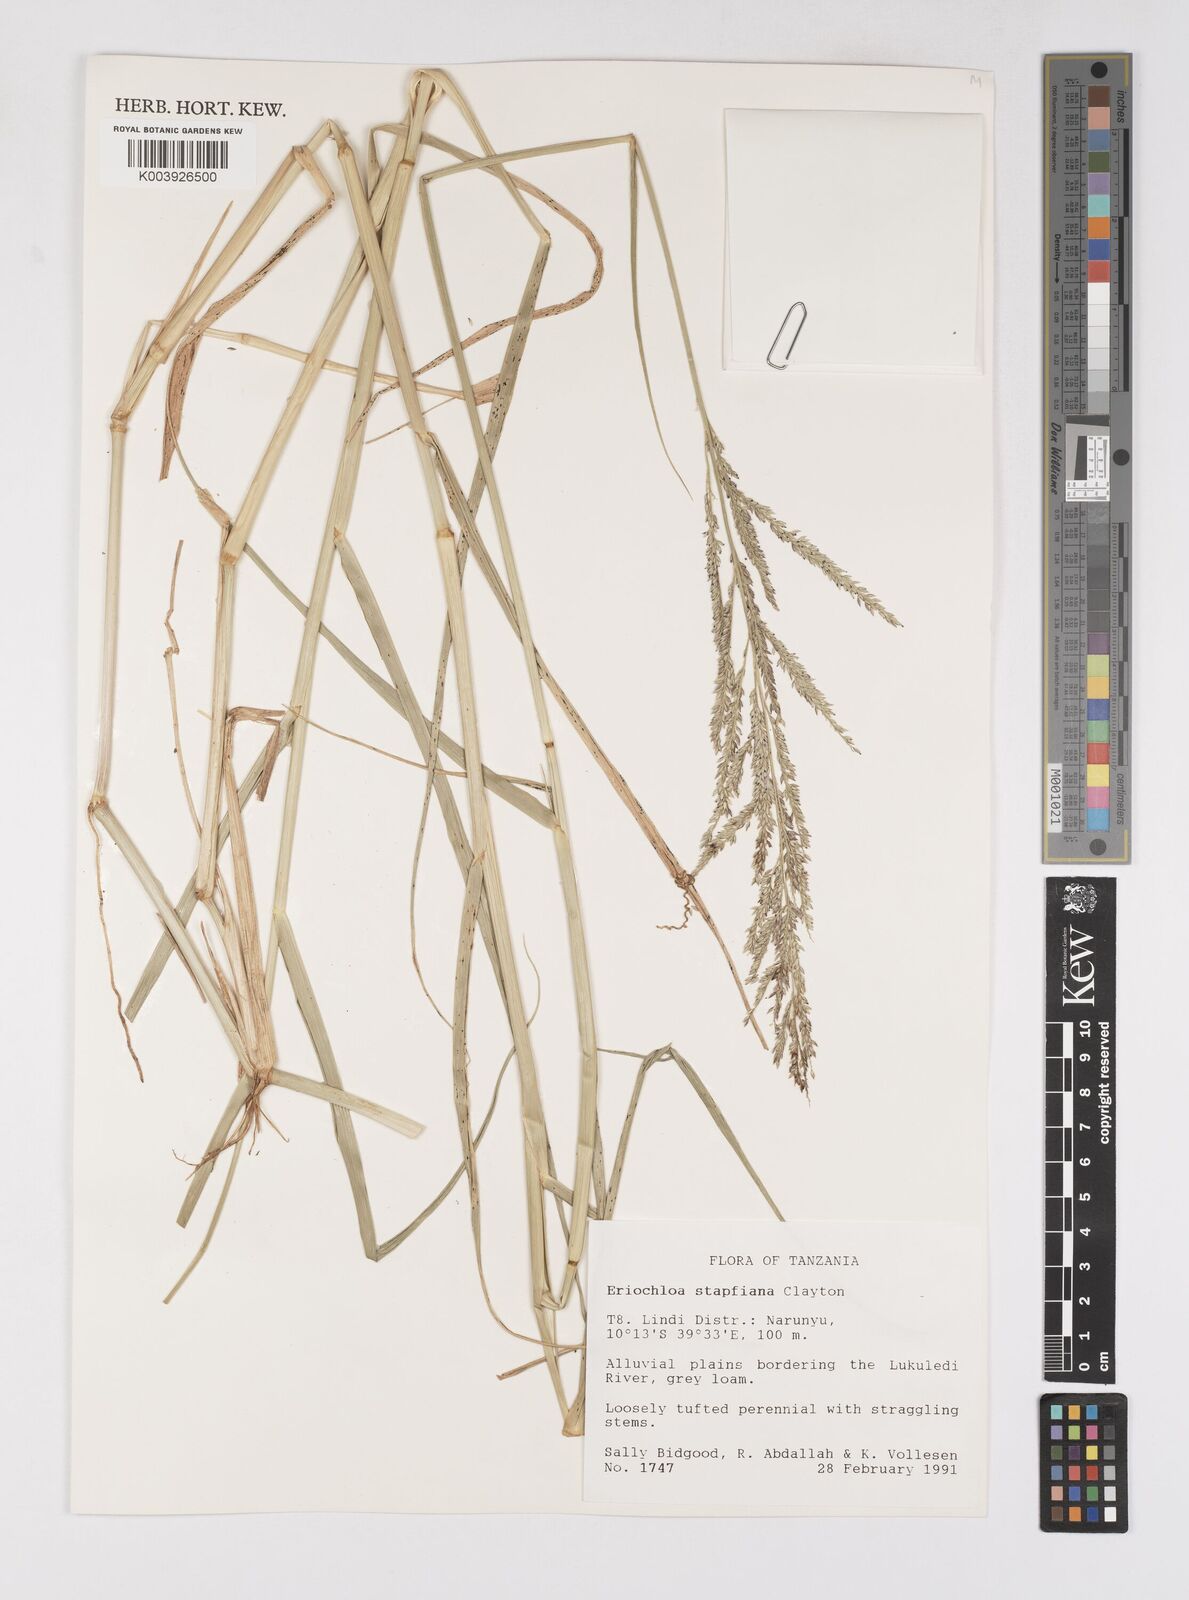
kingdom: Plantae
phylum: Tracheophyta
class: Liliopsida
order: Poales
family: Poaceae
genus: Eriochloa
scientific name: Eriochloa stapfiana
